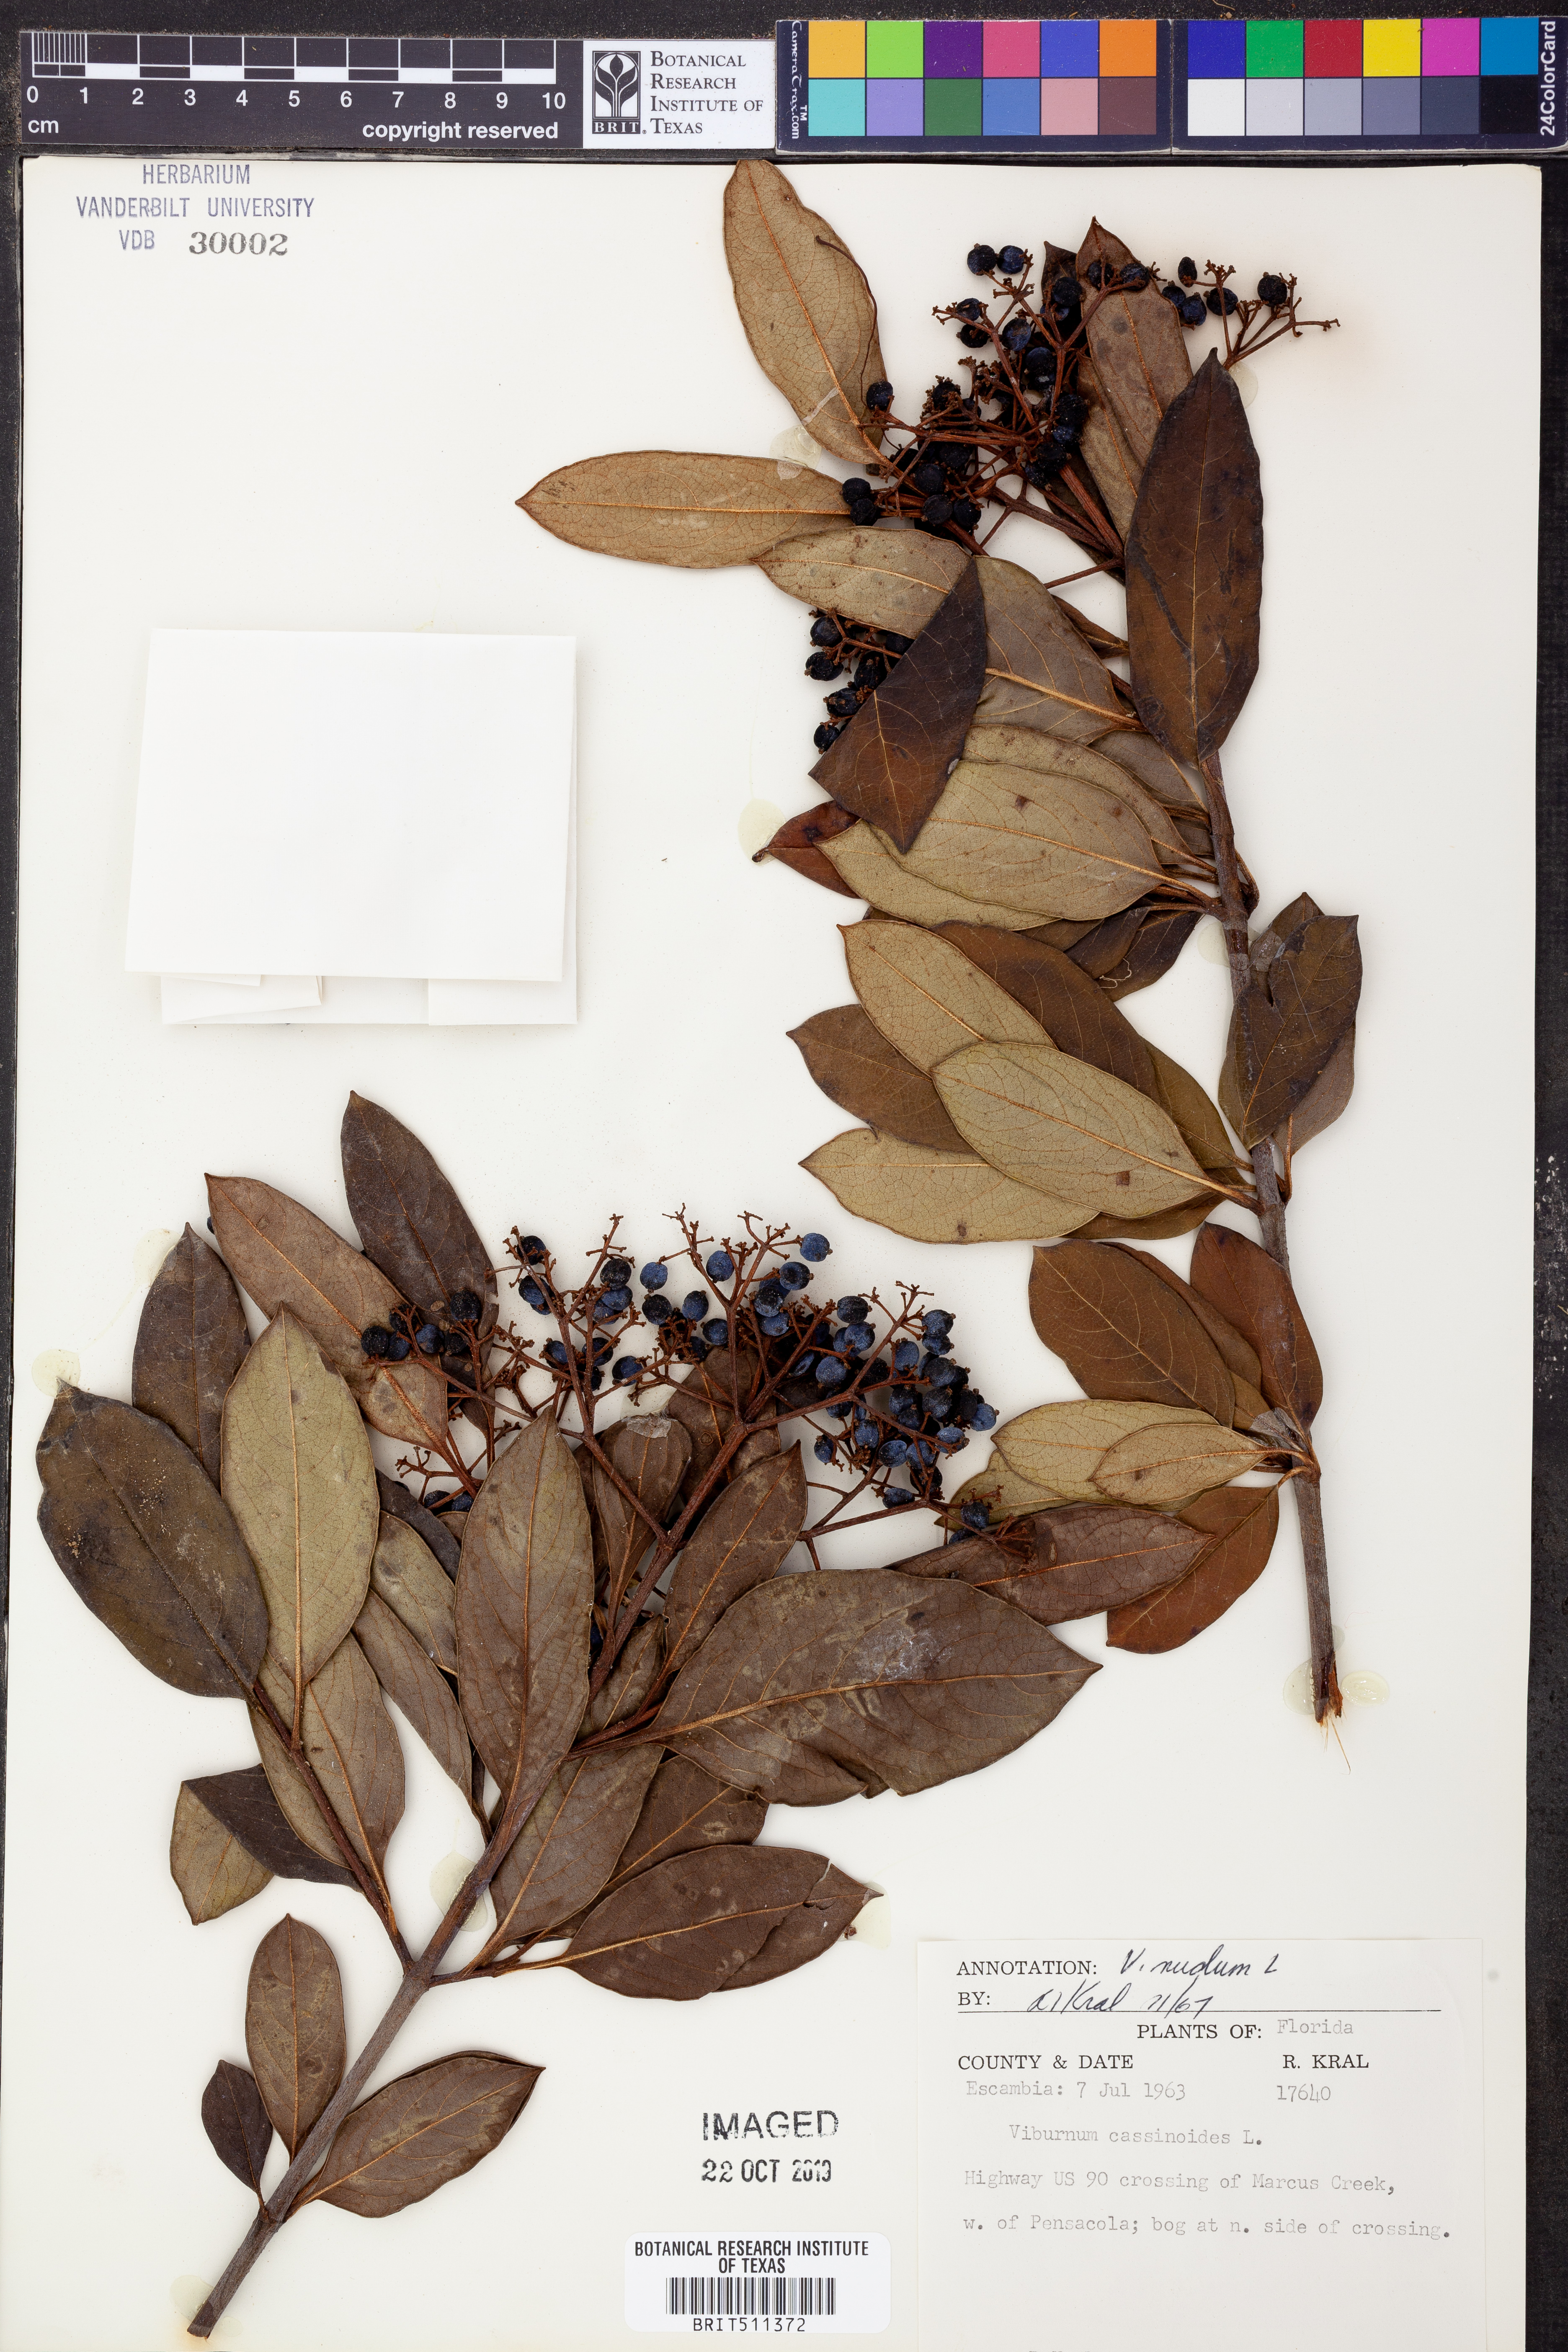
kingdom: Plantae
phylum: Tracheophyta
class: Magnoliopsida
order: Dipsacales
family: Viburnaceae
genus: Viburnum
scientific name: Viburnum nudum
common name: Possum haw
